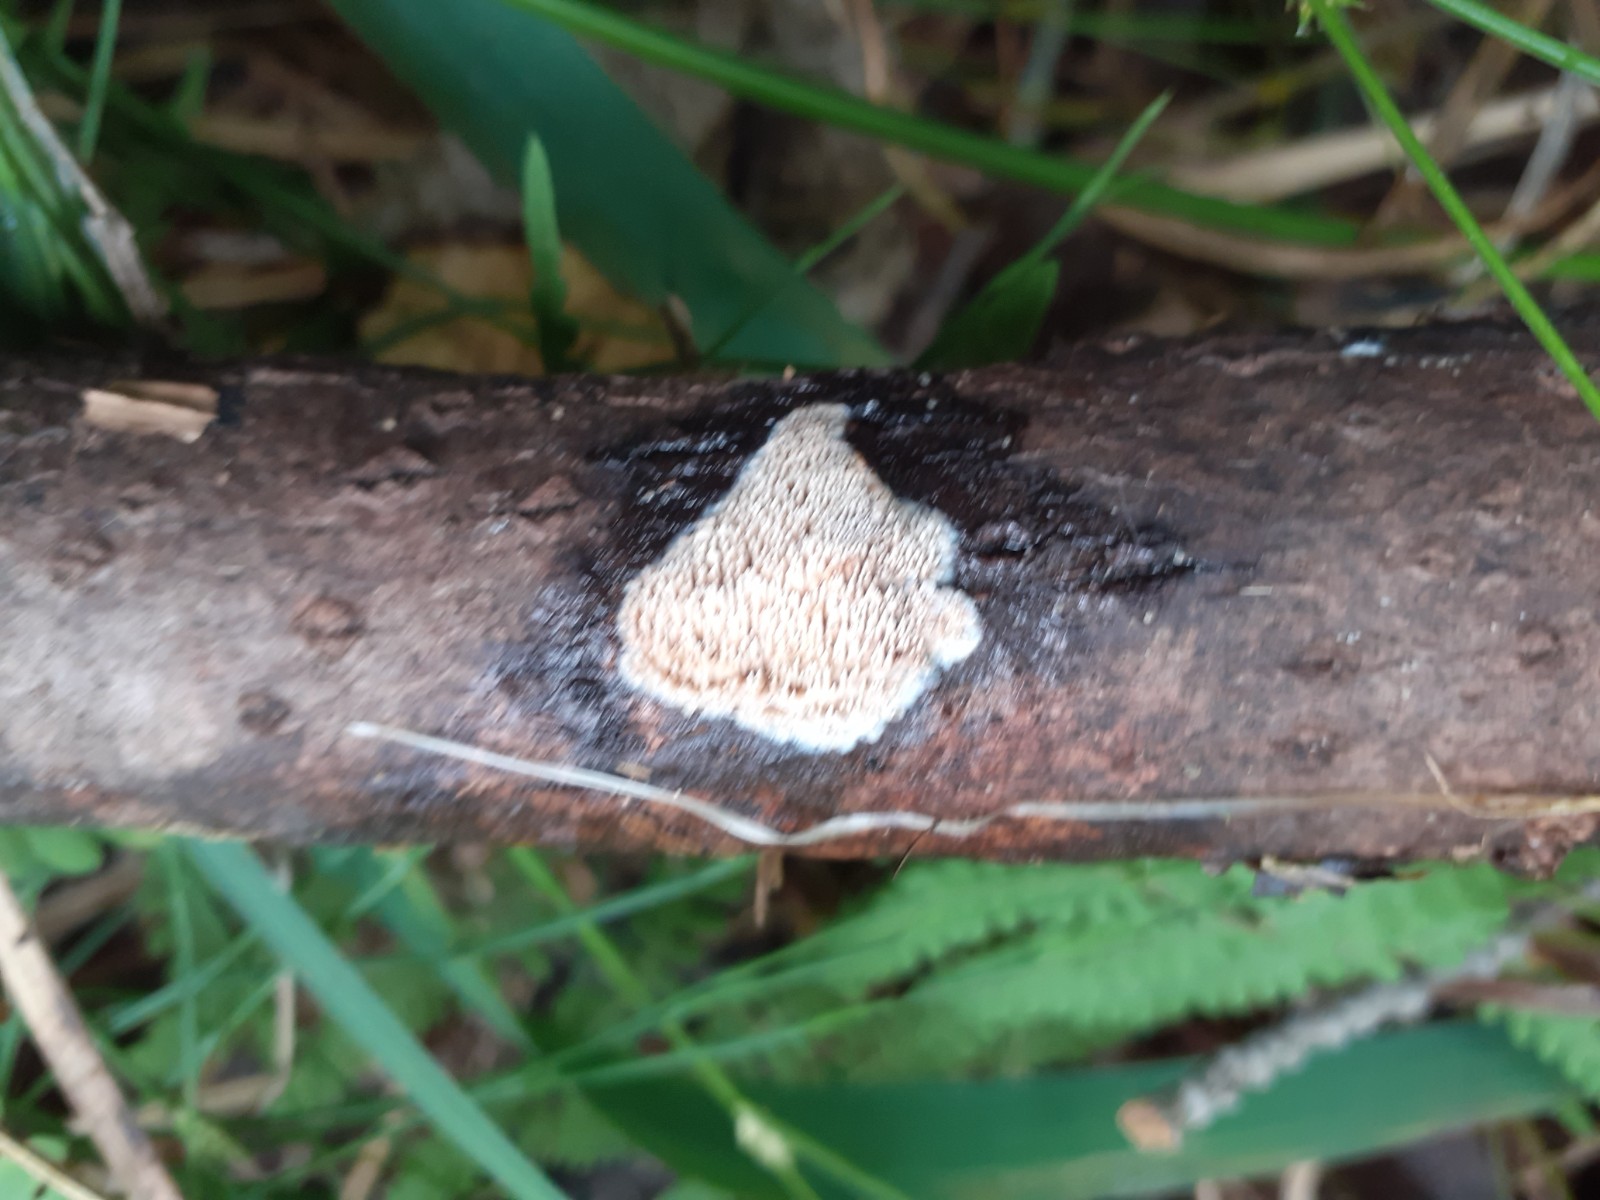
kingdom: Fungi
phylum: Basidiomycota
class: Agaricomycetes
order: Polyporales
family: Meruliaceae
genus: Mycoacia
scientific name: Mycoacia
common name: vokspig
